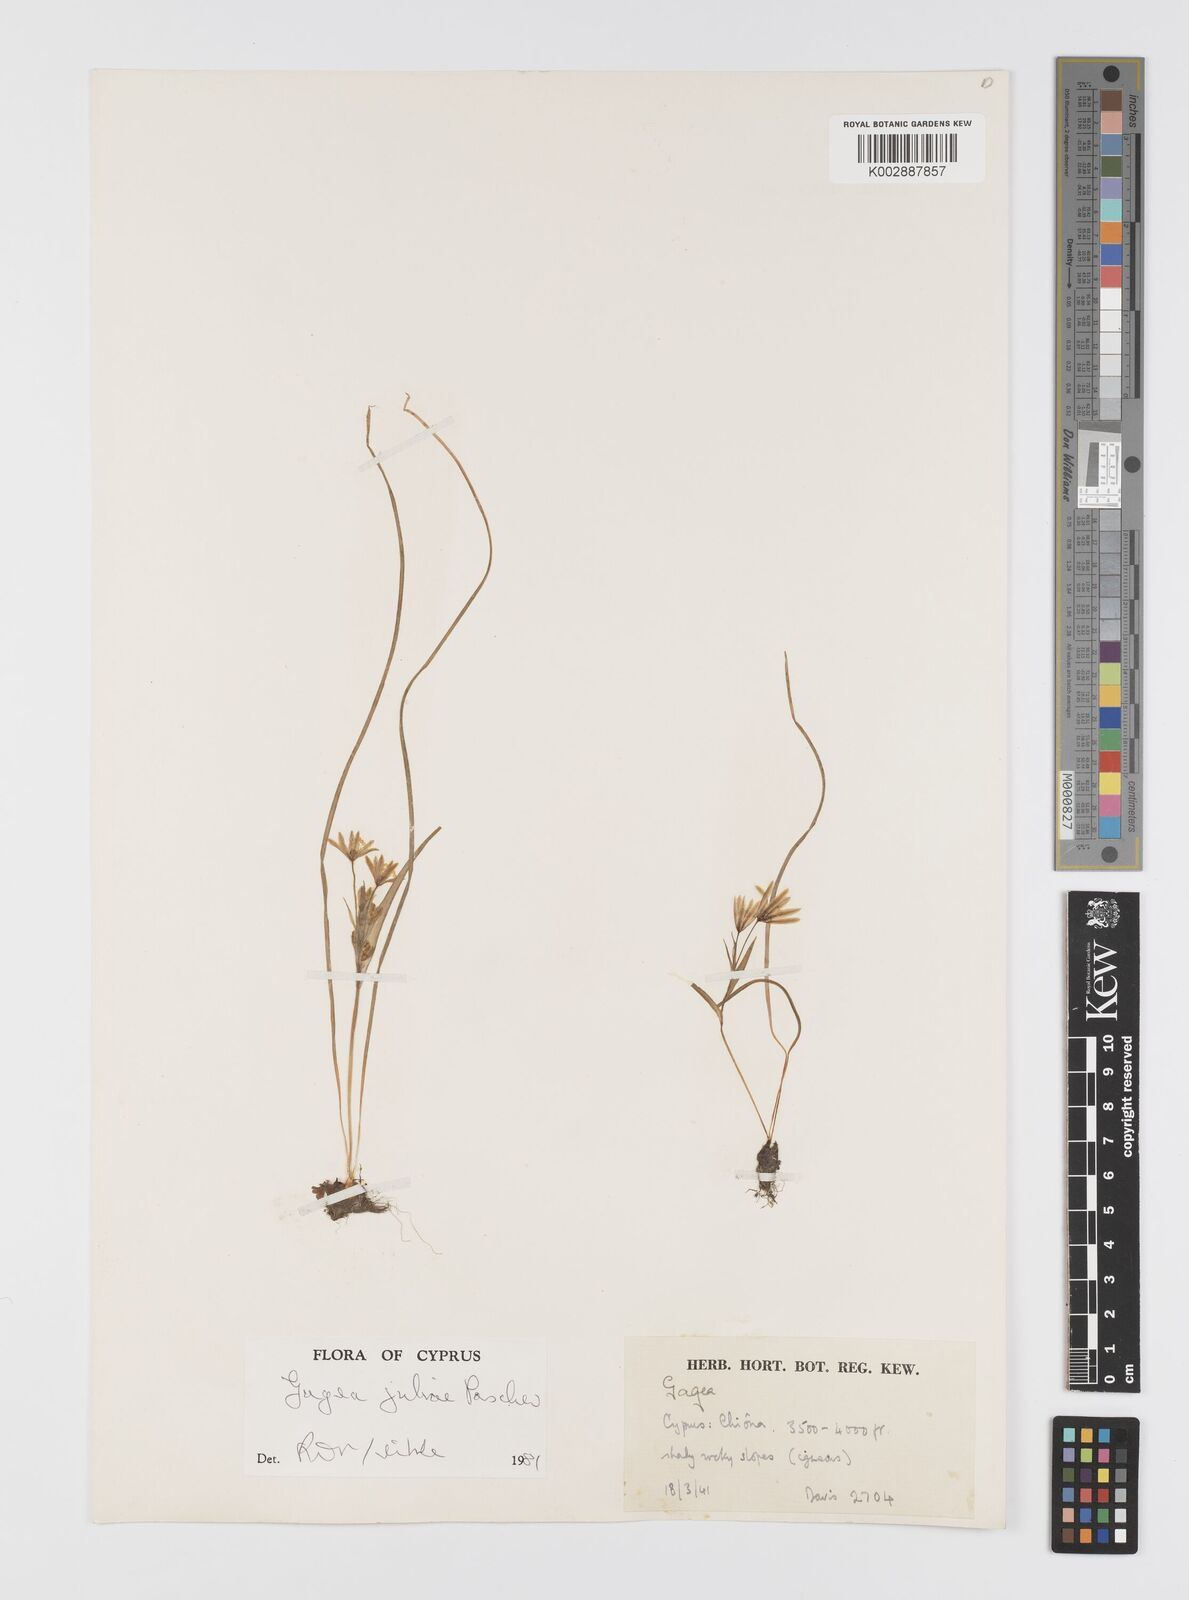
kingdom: Plantae
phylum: Tracheophyta
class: Liliopsida
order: Liliales
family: Liliaceae
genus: Gagea
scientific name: Gagea juliae
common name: Julia’s gagea
